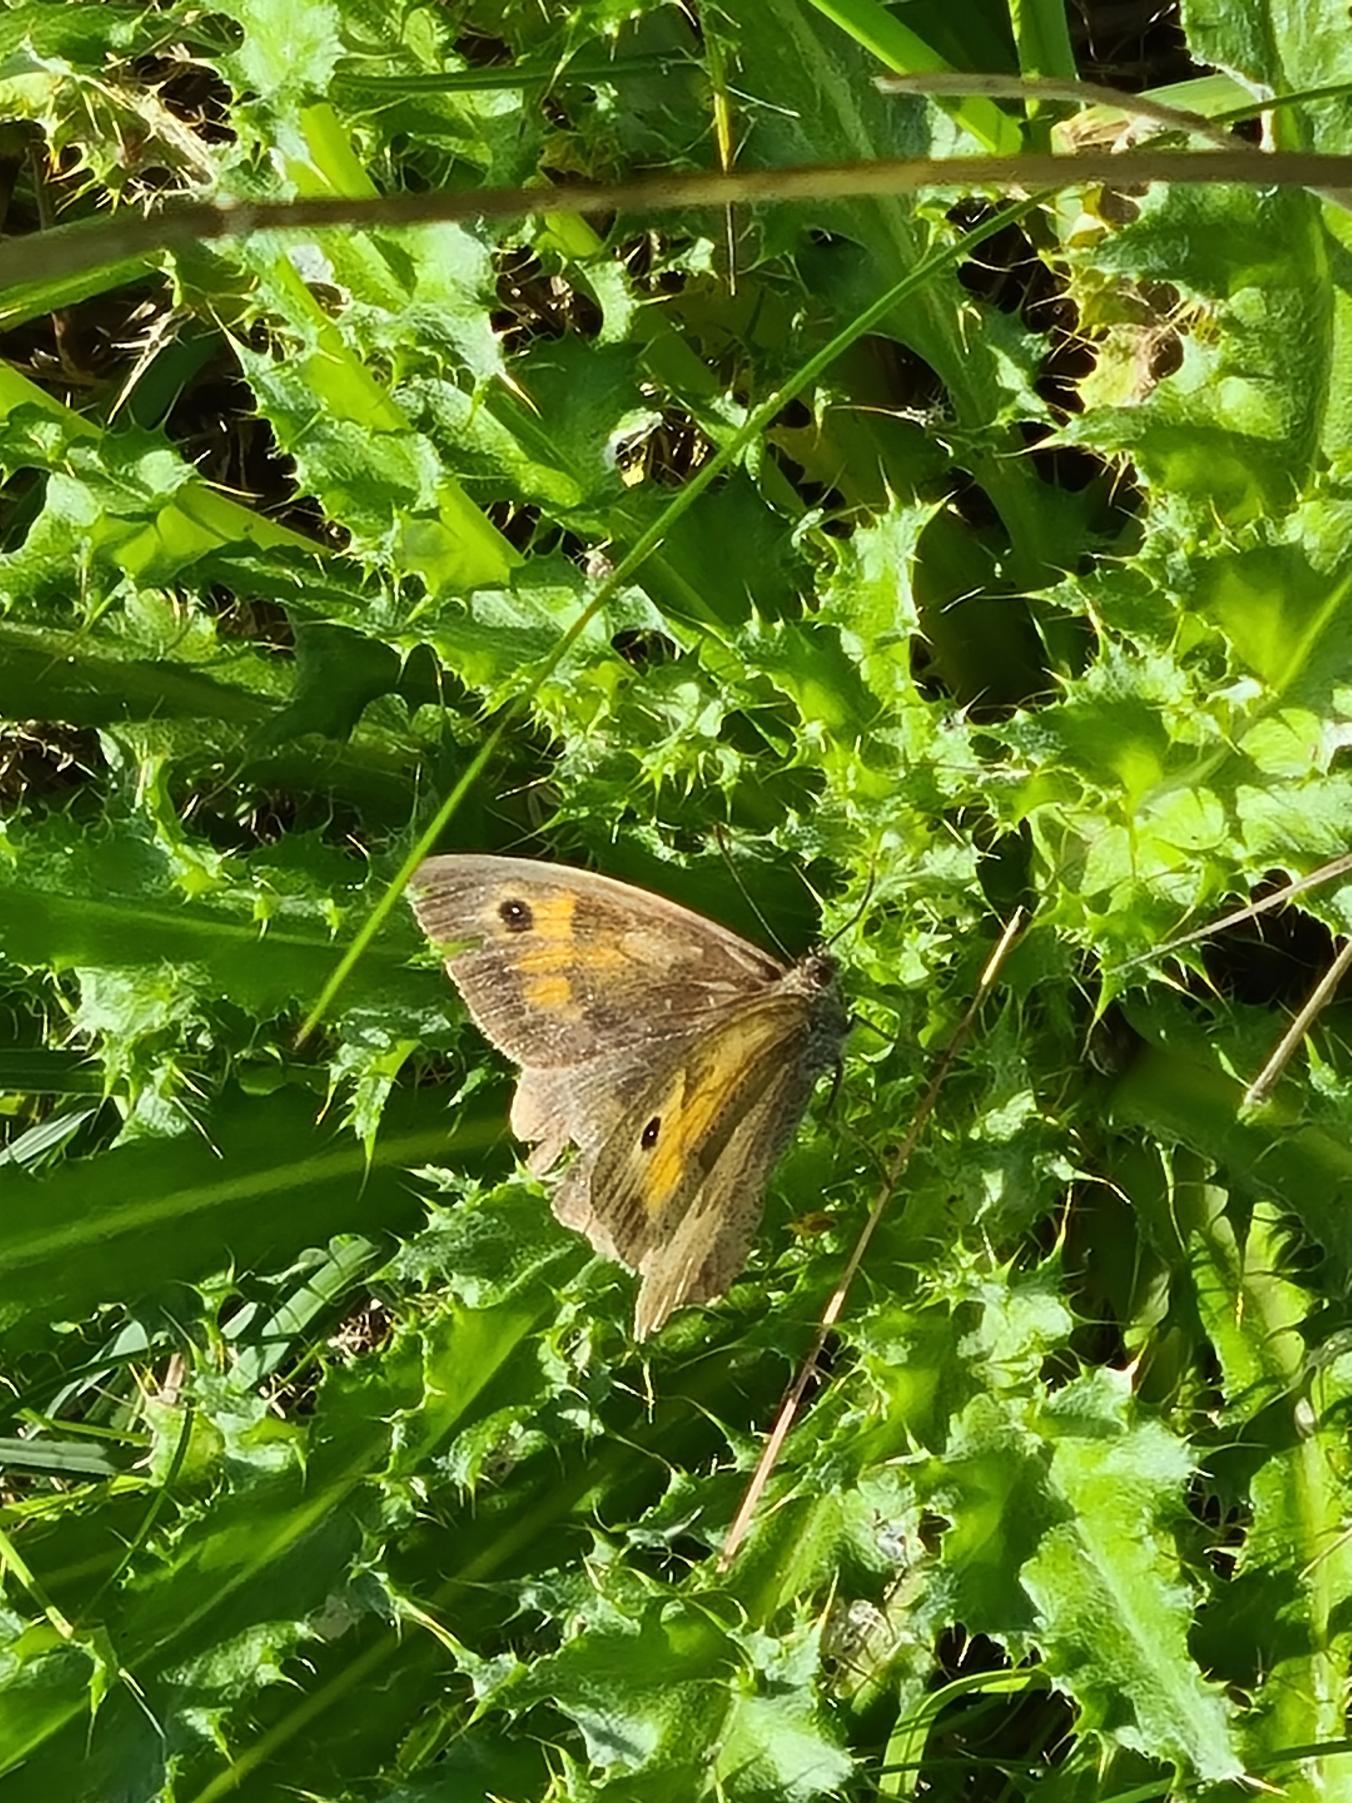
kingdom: Animalia
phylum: Arthropoda
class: Insecta
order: Lepidoptera
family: Nymphalidae
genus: Maniola
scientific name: Maniola jurtina
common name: Græsrandøje
